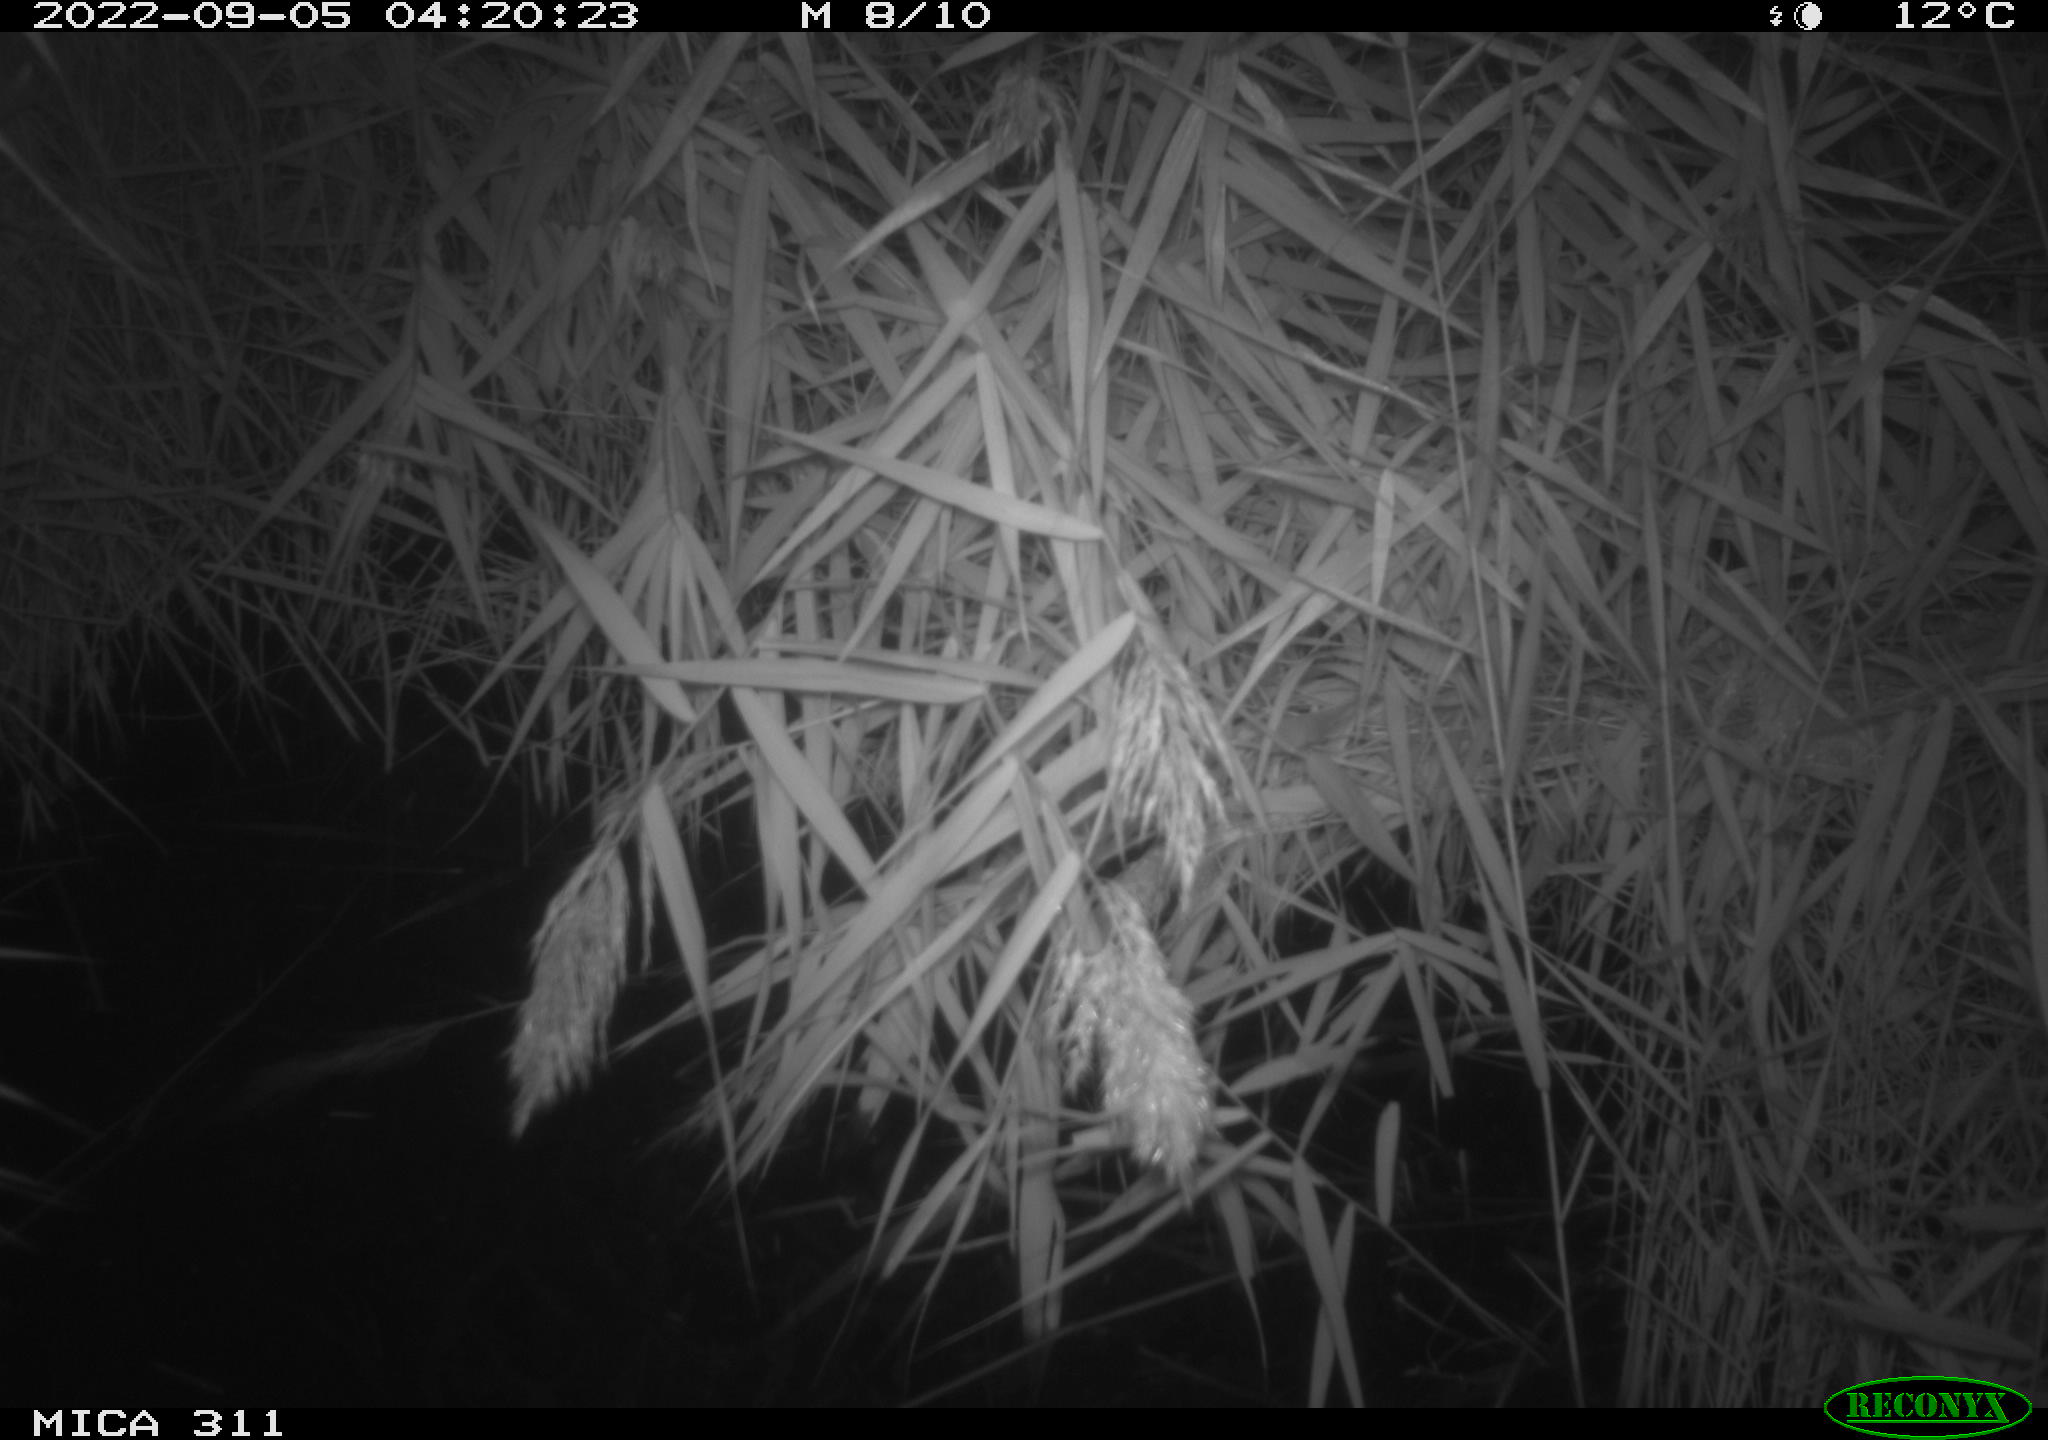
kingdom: Animalia
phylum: Chordata
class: Mammalia
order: Rodentia
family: Muridae
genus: Rattus
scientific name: Rattus norvegicus
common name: Brown rat
